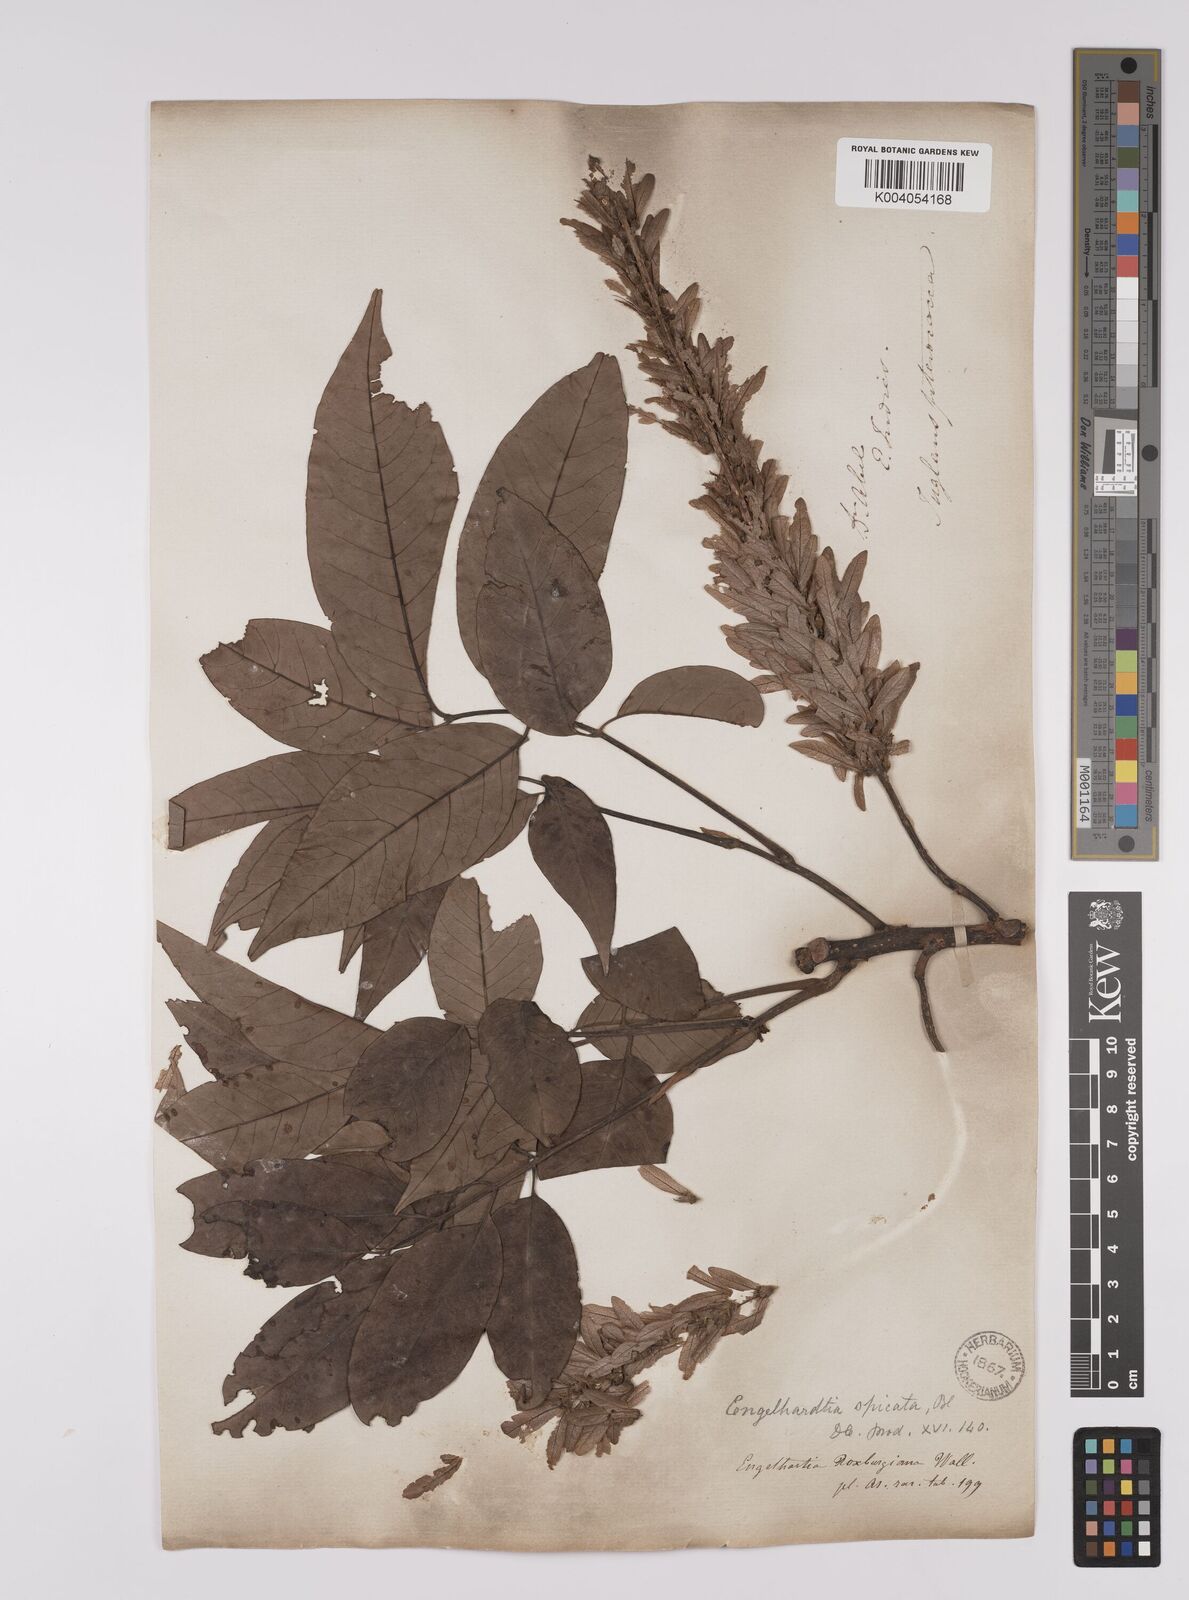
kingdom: Plantae
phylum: Tracheophyta
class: Magnoliopsida
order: Fagales
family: Juglandaceae
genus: Engelhardia
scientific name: Engelhardia spicata
